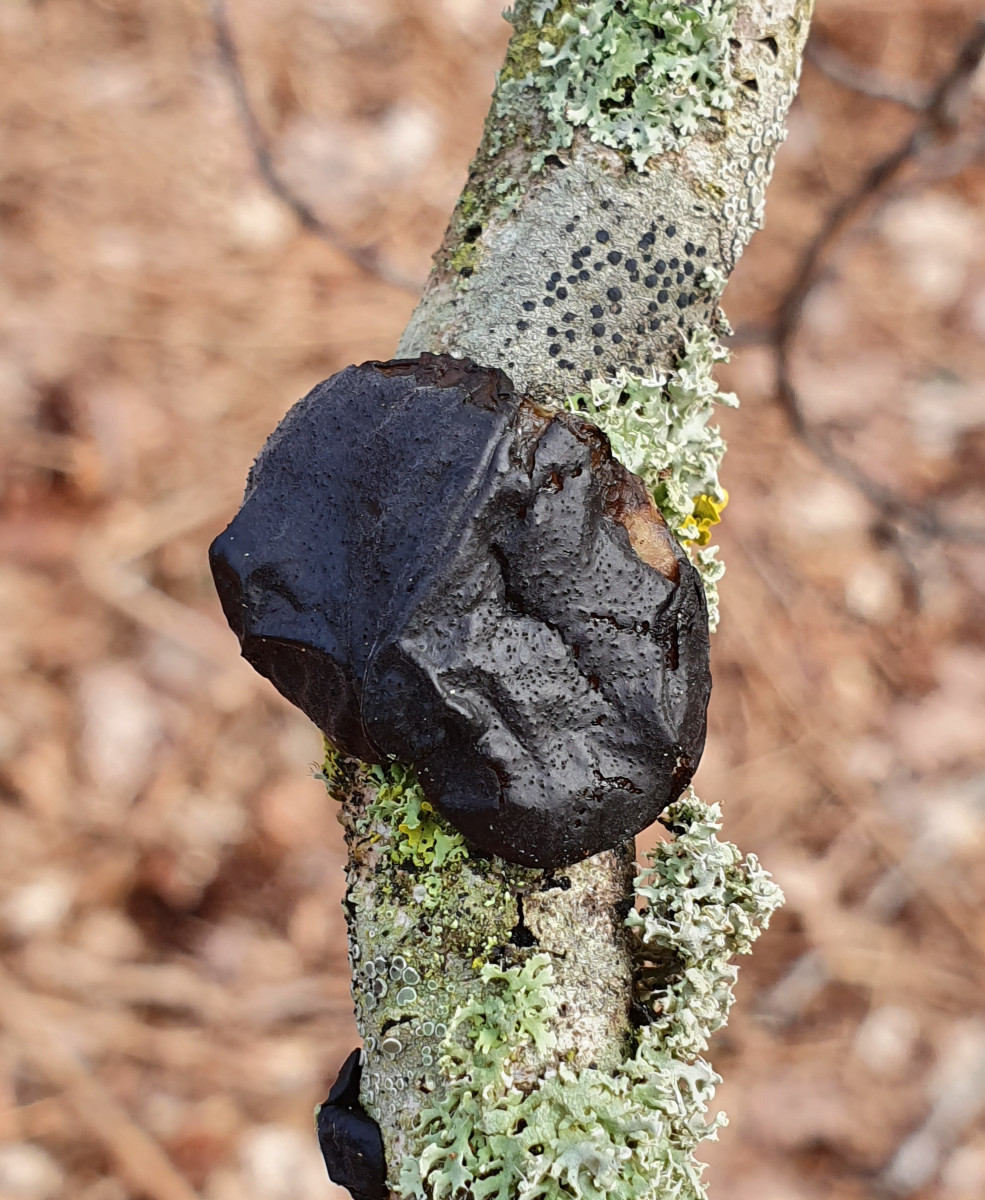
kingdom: Fungi
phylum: Basidiomycota
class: Agaricomycetes
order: Auriculariales
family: Auriculariaceae
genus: Exidia
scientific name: Exidia glandulosa
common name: ege-bævretop
